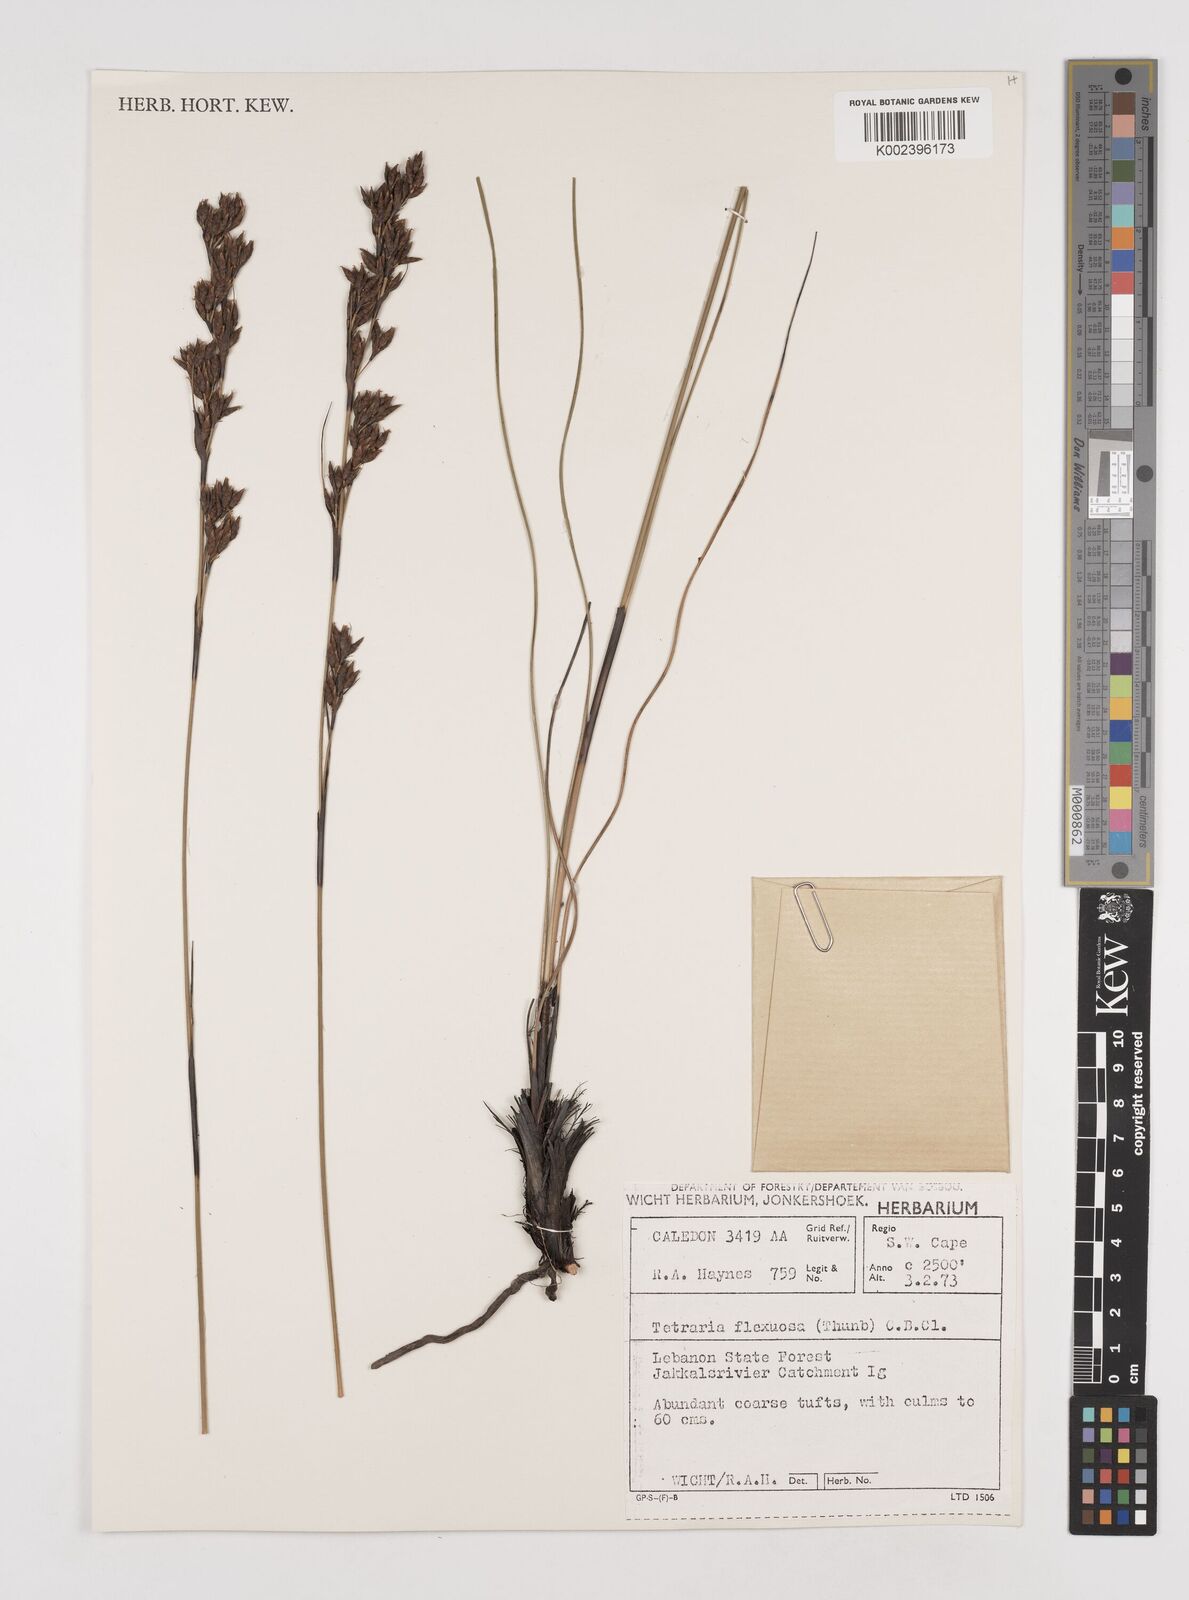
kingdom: Plantae
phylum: Tracheophyta
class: Liliopsida
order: Poales
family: Cyperaceae
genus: Tetraria
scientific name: Tetraria flexuosa
